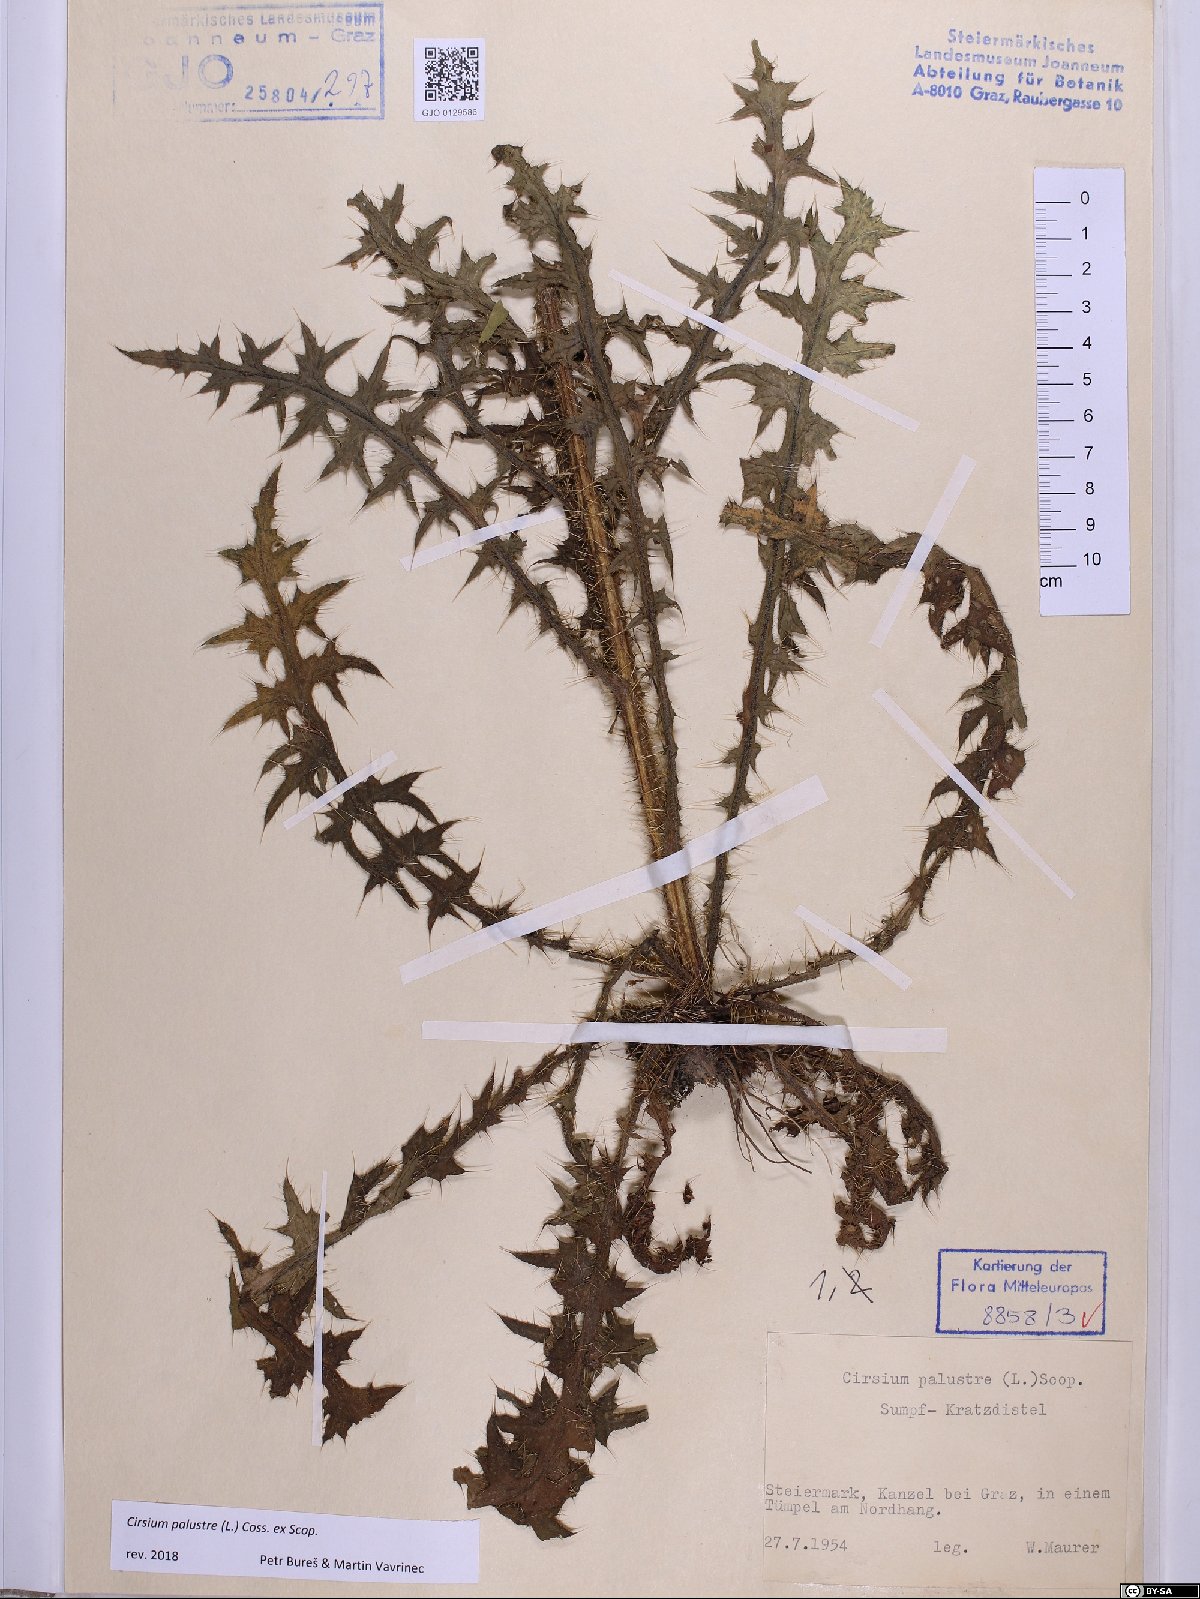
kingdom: Plantae
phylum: Tracheophyta
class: Magnoliopsida
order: Asterales
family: Asteraceae
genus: Cirsium
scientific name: Cirsium palustre
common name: Marsh thistle
